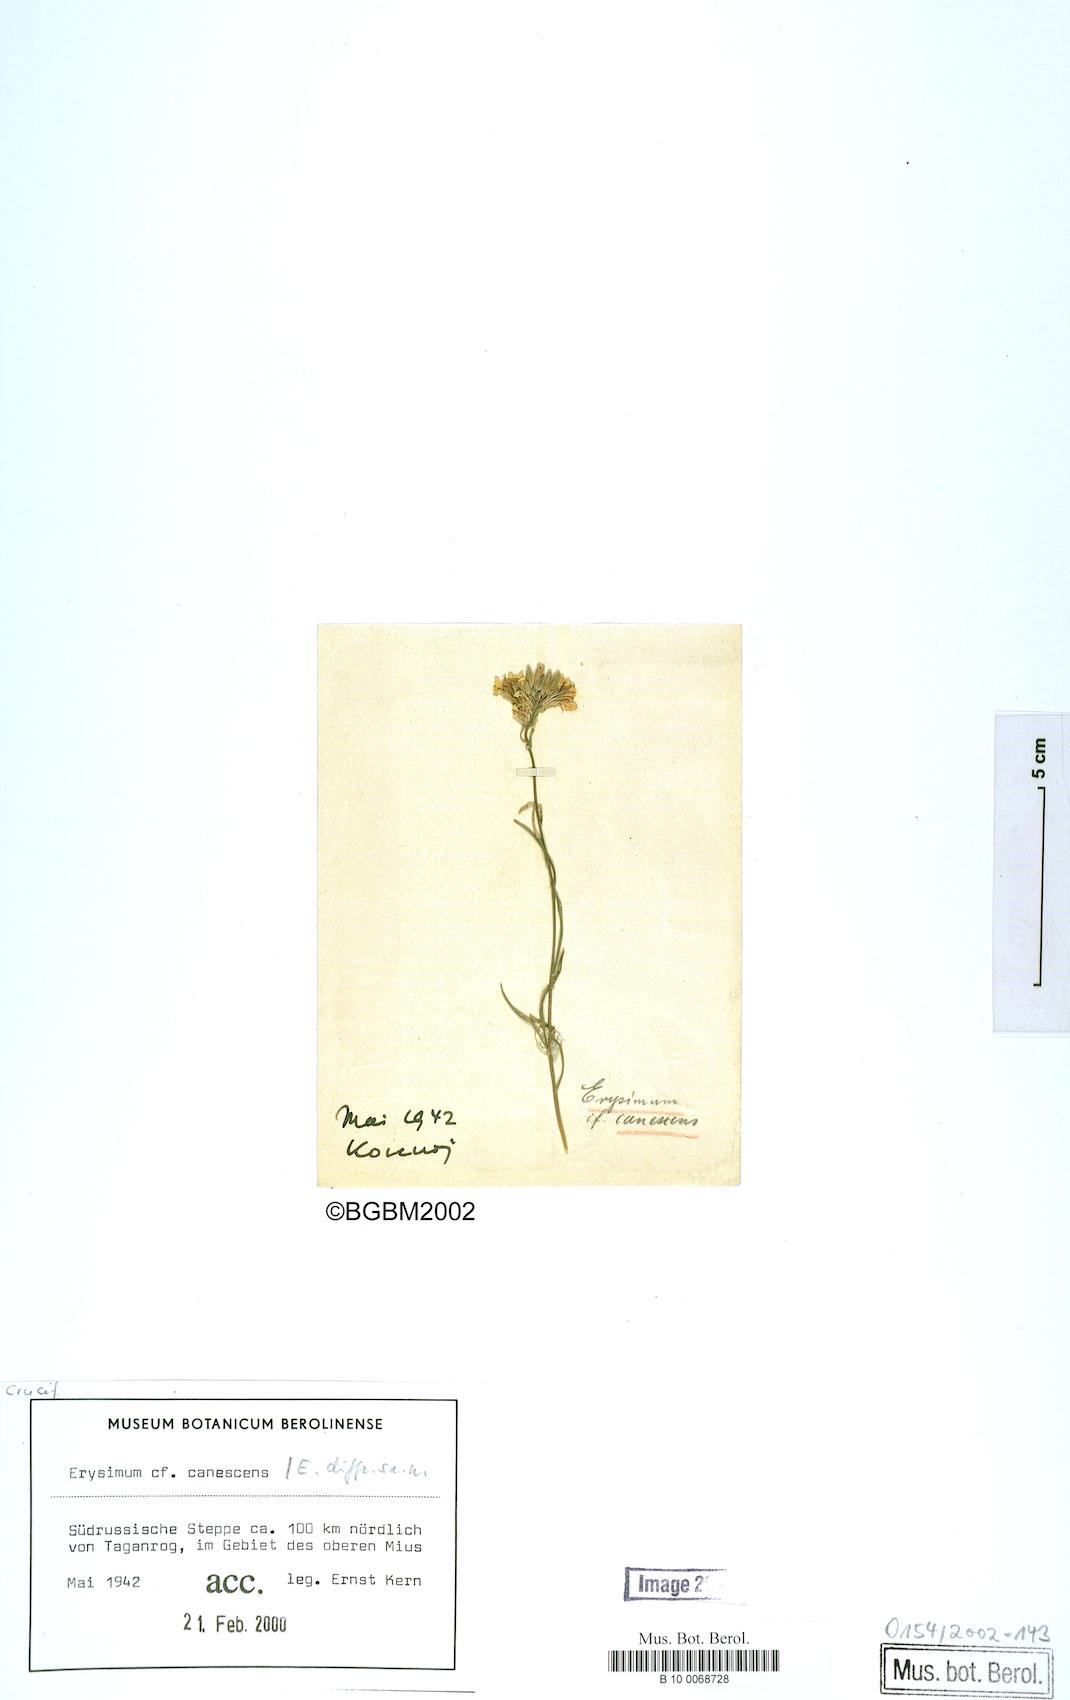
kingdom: Plantae
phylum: Tracheophyta
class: Magnoliopsida
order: Brassicales
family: Brassicaceae
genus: Erysimum
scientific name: Erysimum diffusum
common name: Diffuse wallflower
